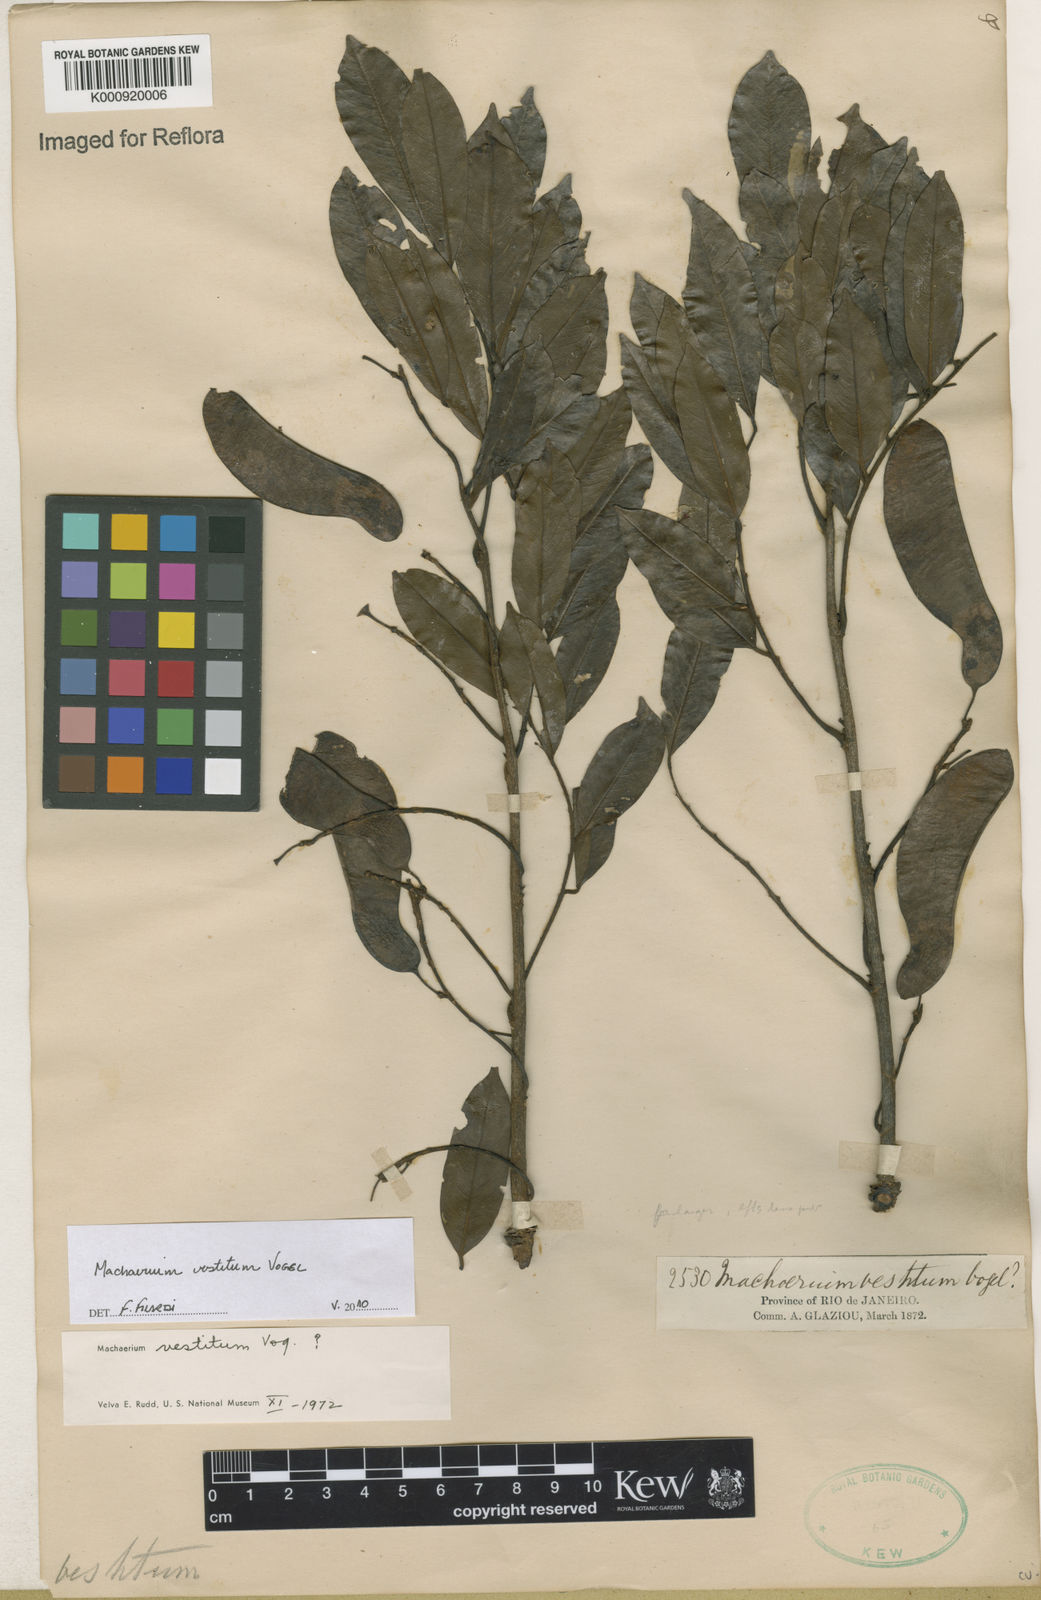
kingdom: Plantae
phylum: Tracheophyta
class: Magnoliopsida
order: Fabales
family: Fabaceae
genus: Machaerium
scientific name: Machaerium brasiliense
